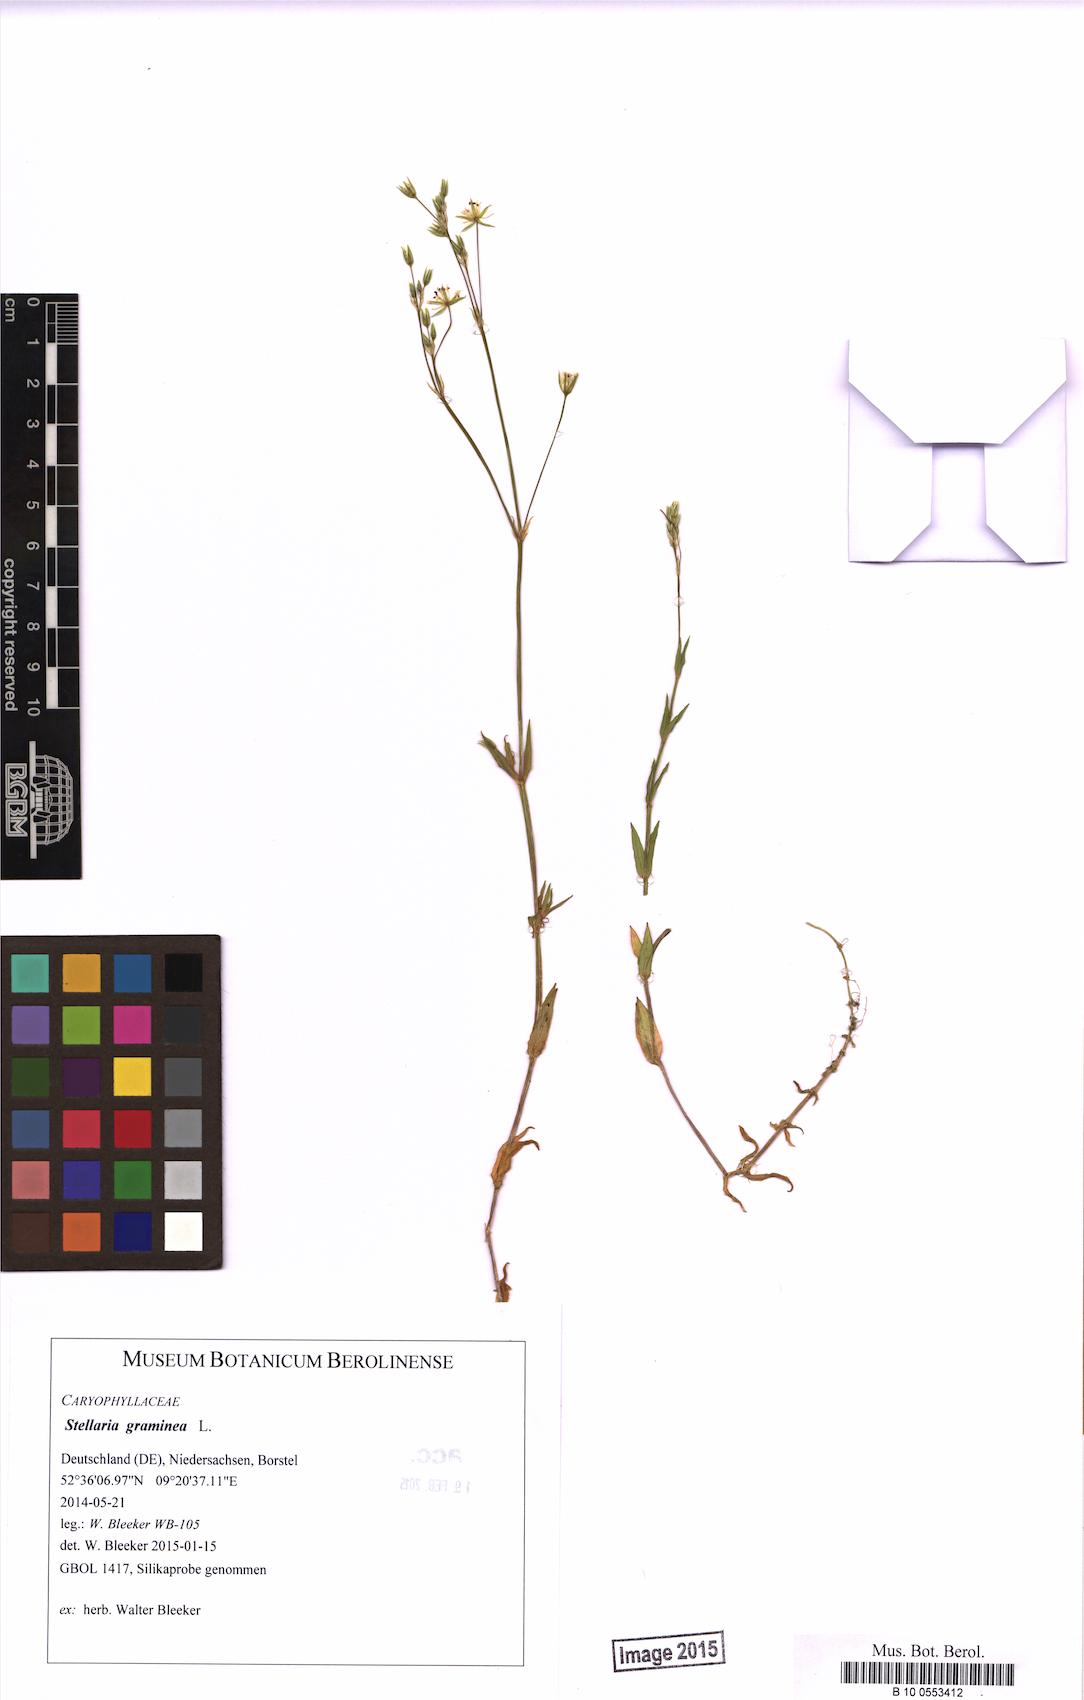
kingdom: Plantae
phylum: Tracheophyta
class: Magnoliopsida
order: Caryophyllales
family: Caryophyllaceae
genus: Stellaria
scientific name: Stellaria graminea
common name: Grass-like starwort
